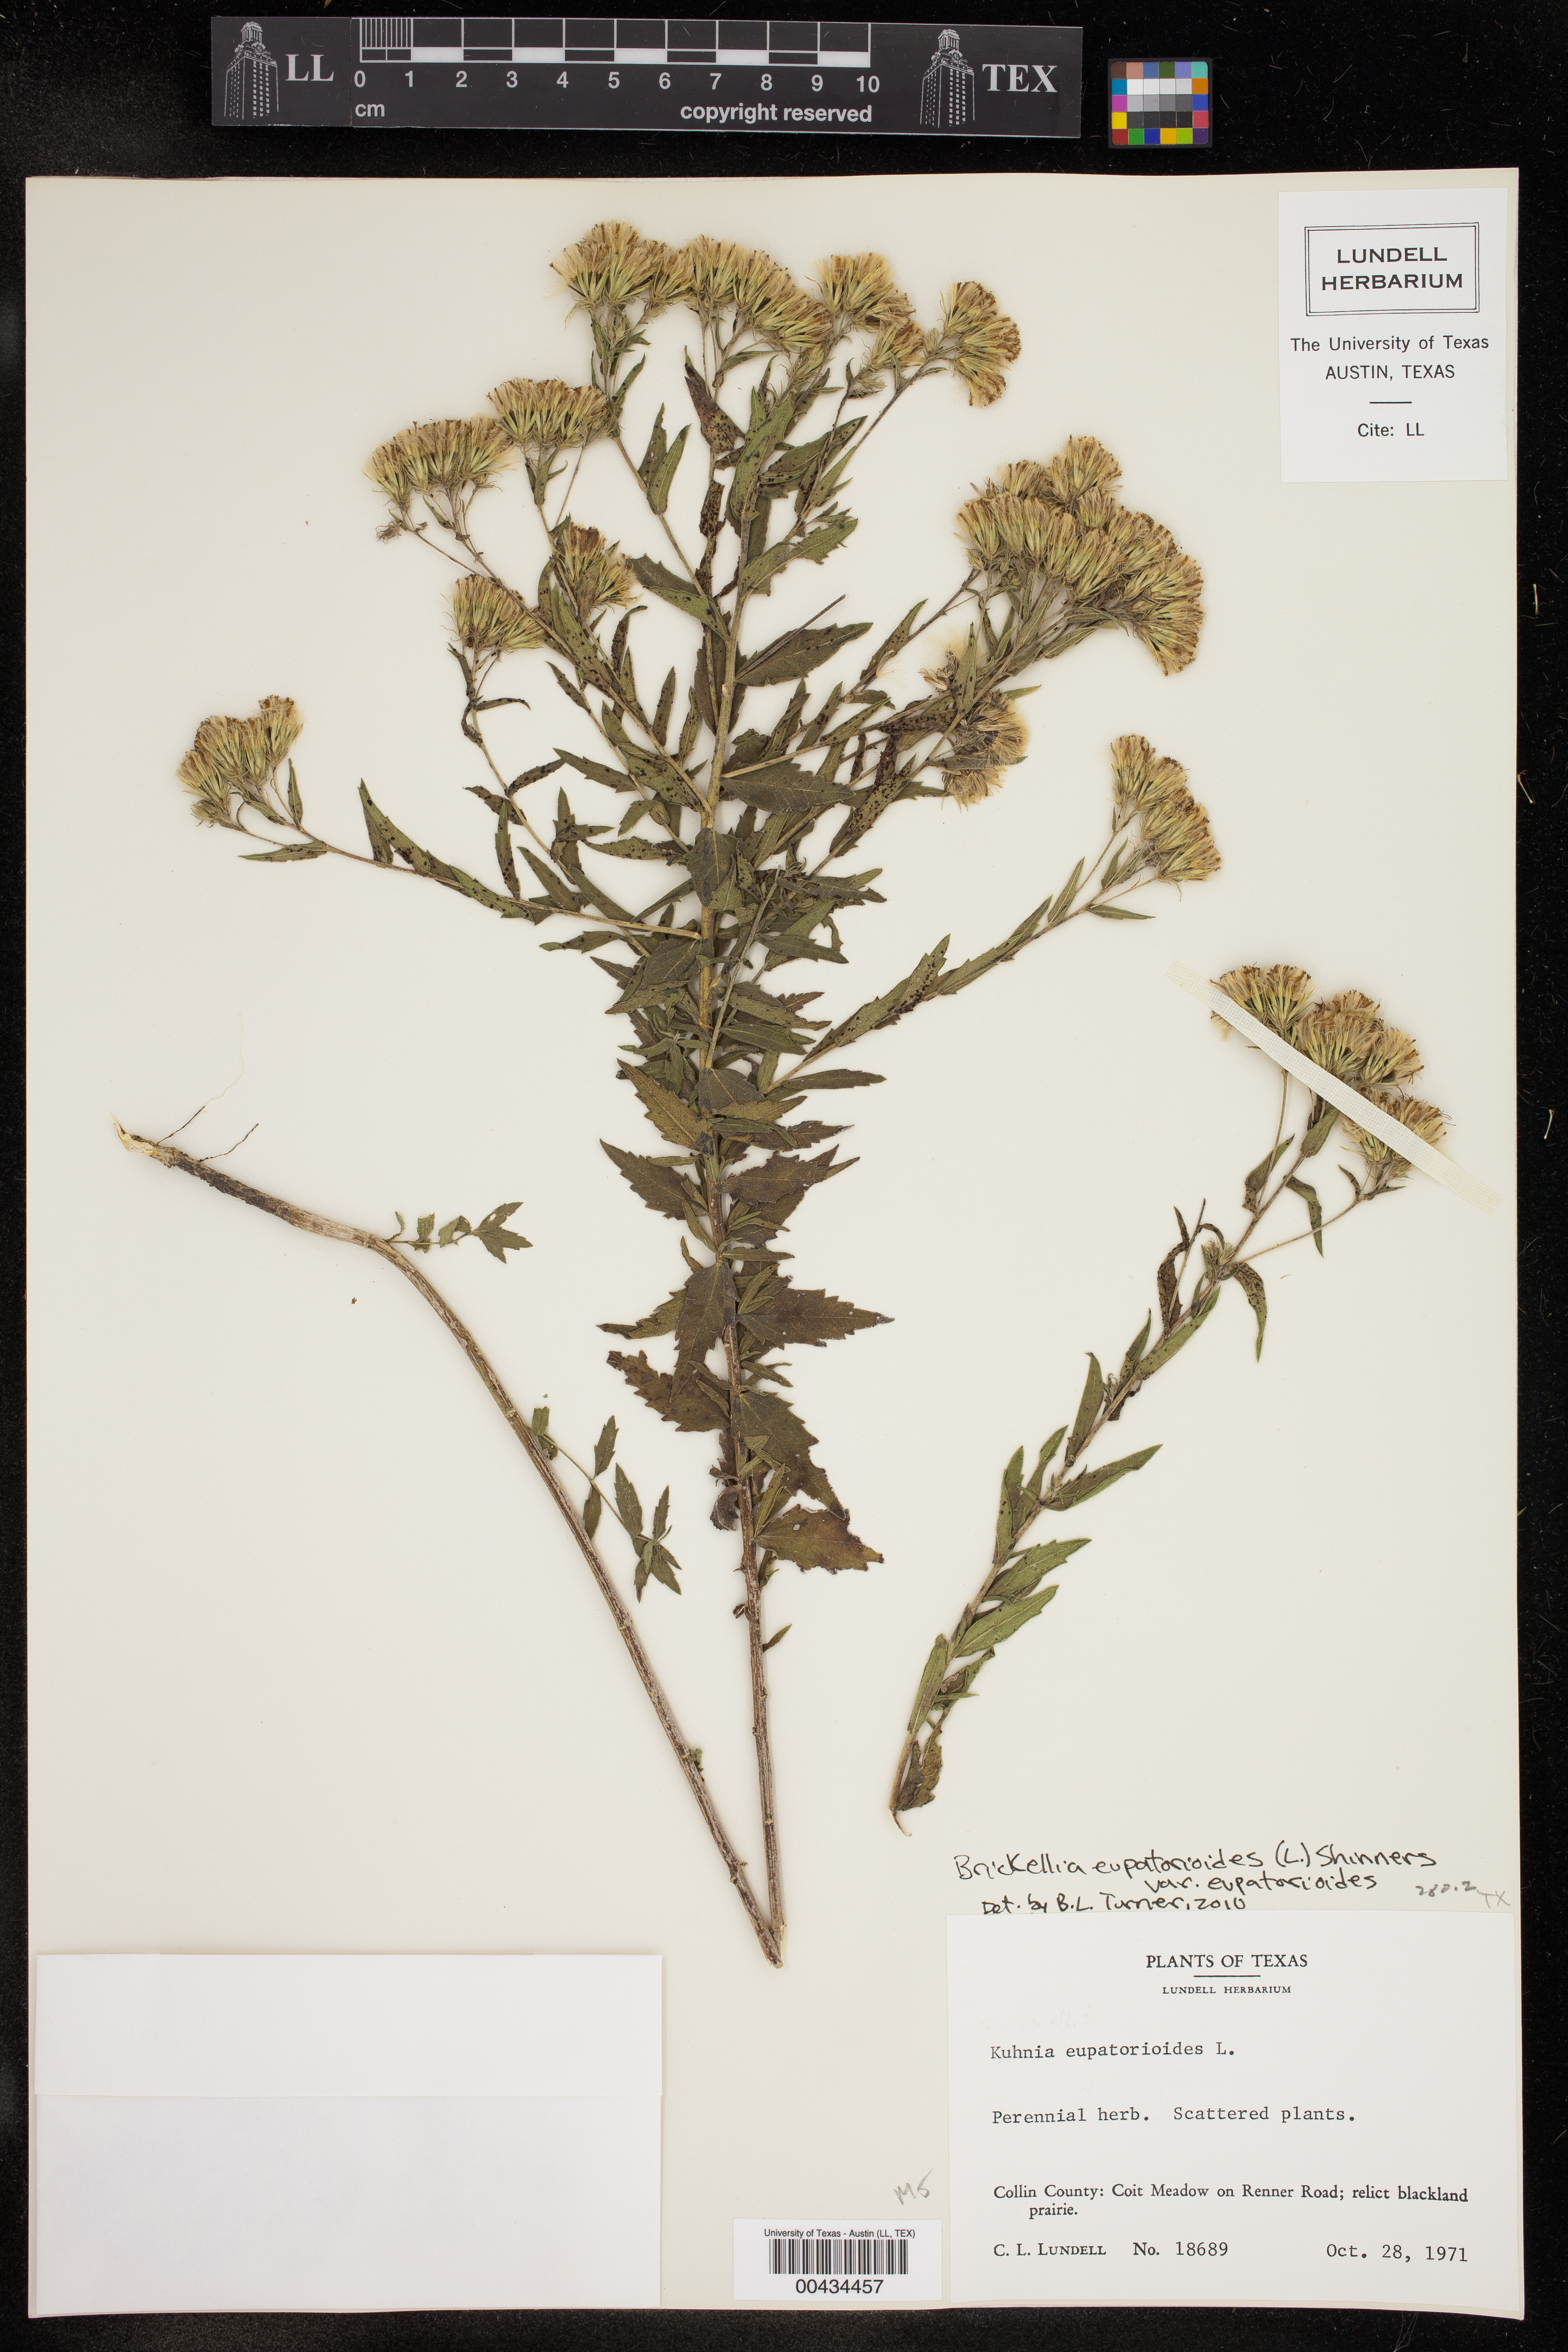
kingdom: Plantae
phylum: Tracheophyta
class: Magnoliopsida
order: Asterales
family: Asteraceae
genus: Brickellia
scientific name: Brickellia eupatorioides
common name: False boneset
